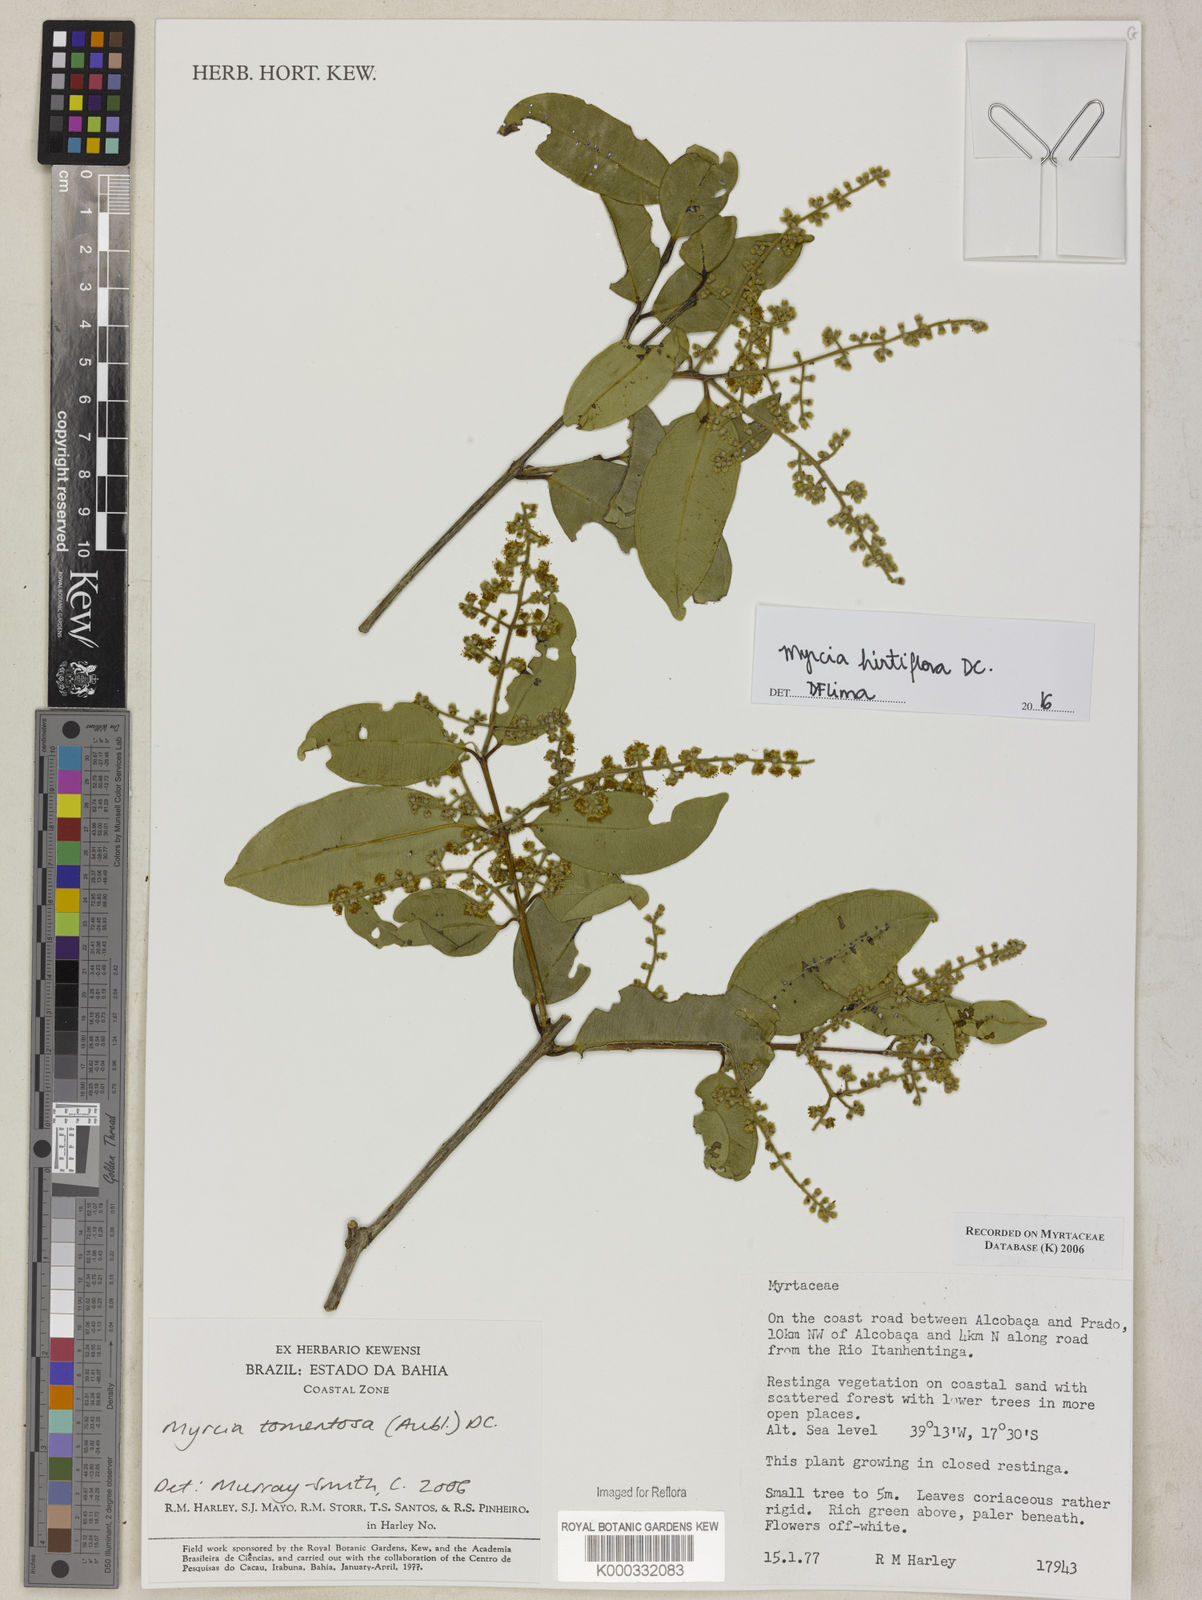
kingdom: Plantae
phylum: Tracheophyta
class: Magnoliopsida
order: Myrtales
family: Myrtaceae
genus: Myrcia
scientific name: Myrcia tomentosa
